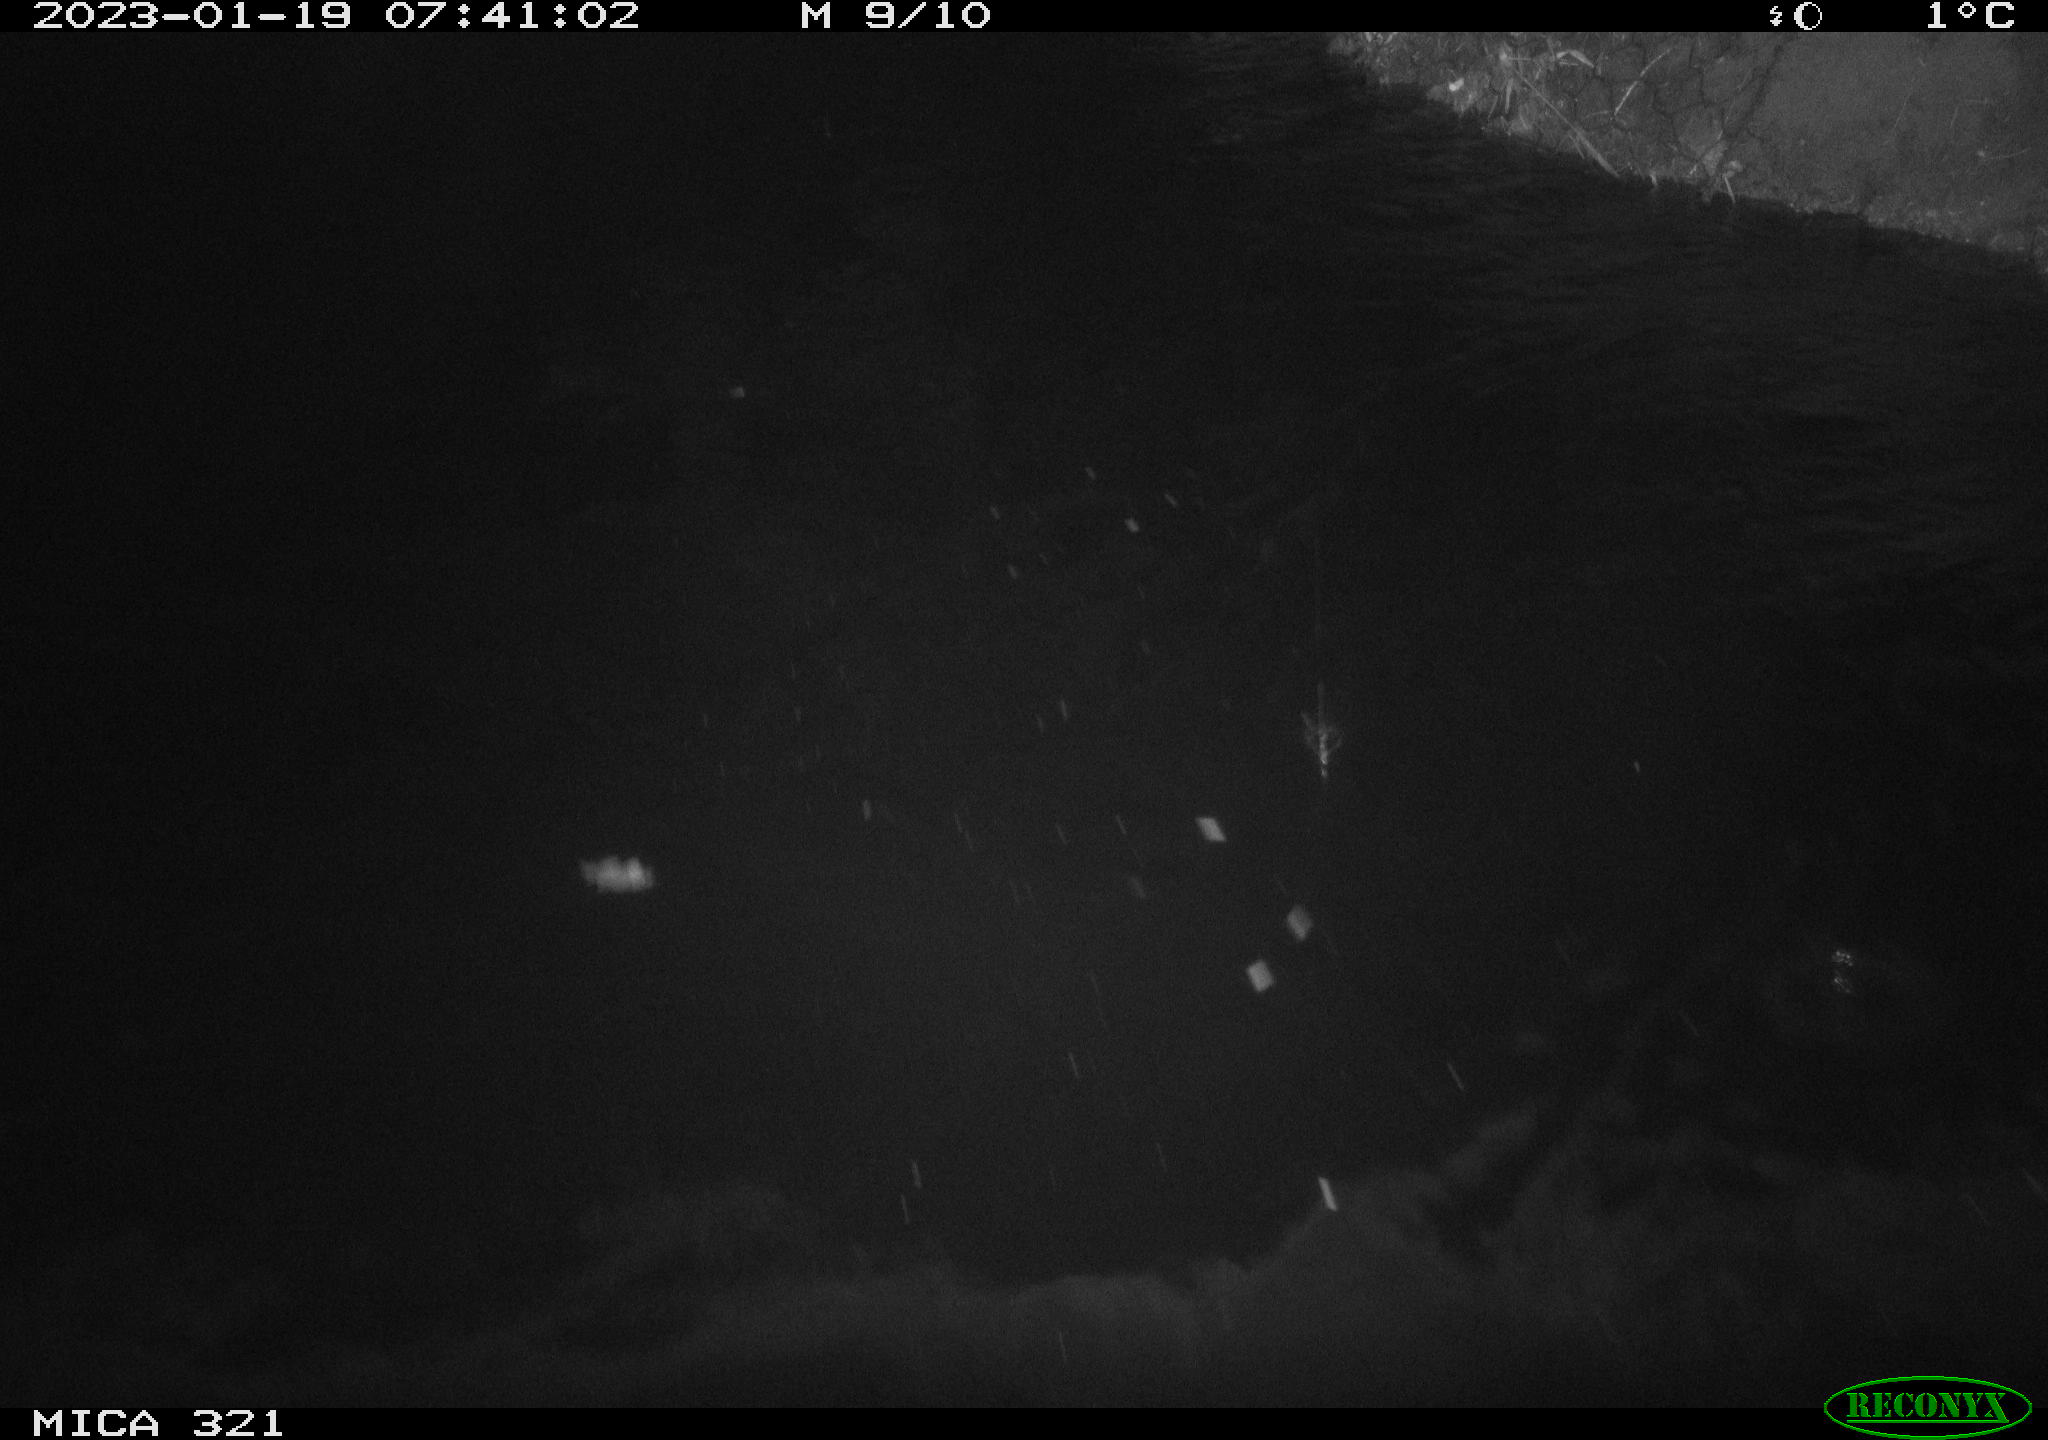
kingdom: Animalia
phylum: Chordata
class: Aves
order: Anseriformes
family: Anatidae
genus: Anas
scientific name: Anas
